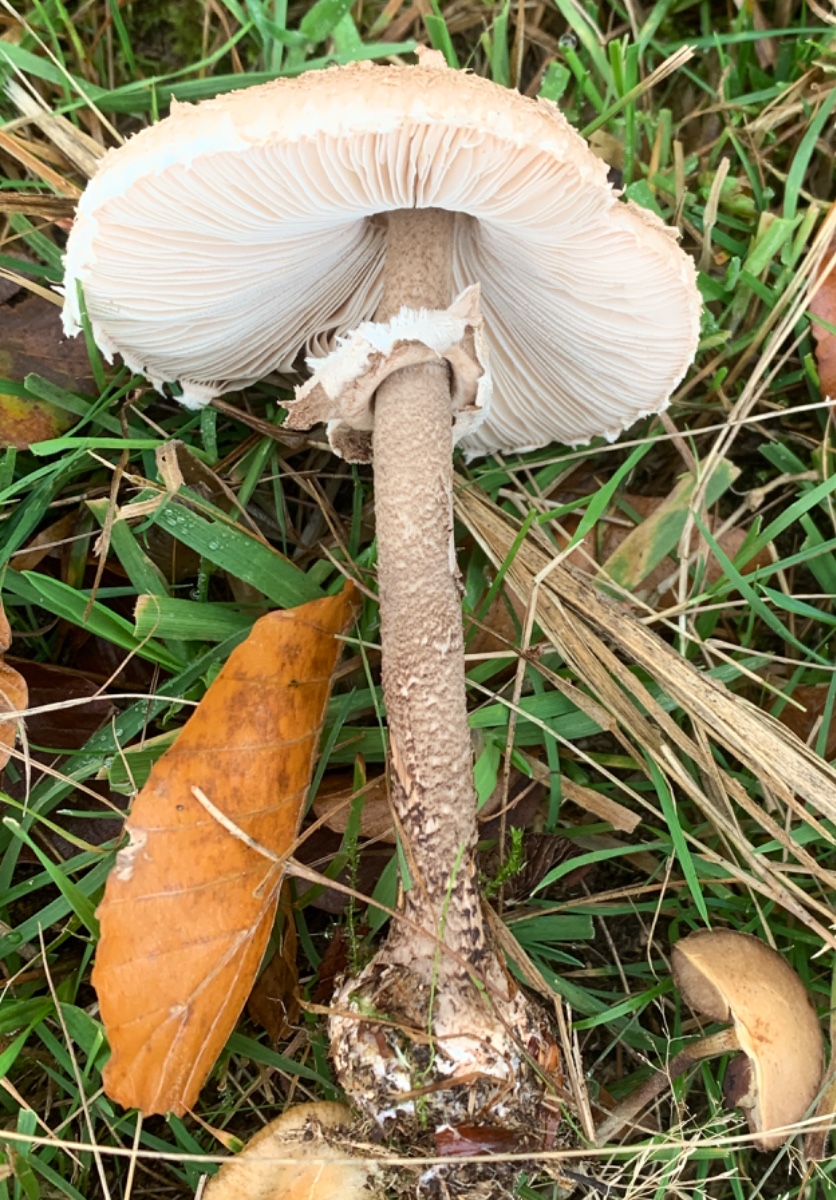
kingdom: Fungi
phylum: Basidiomycota
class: Agaricomycetes
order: Agaricales
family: Agaricaceae
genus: Macrolepiota
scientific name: Macrolepiota procera
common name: stor kæmpeparasolhat
